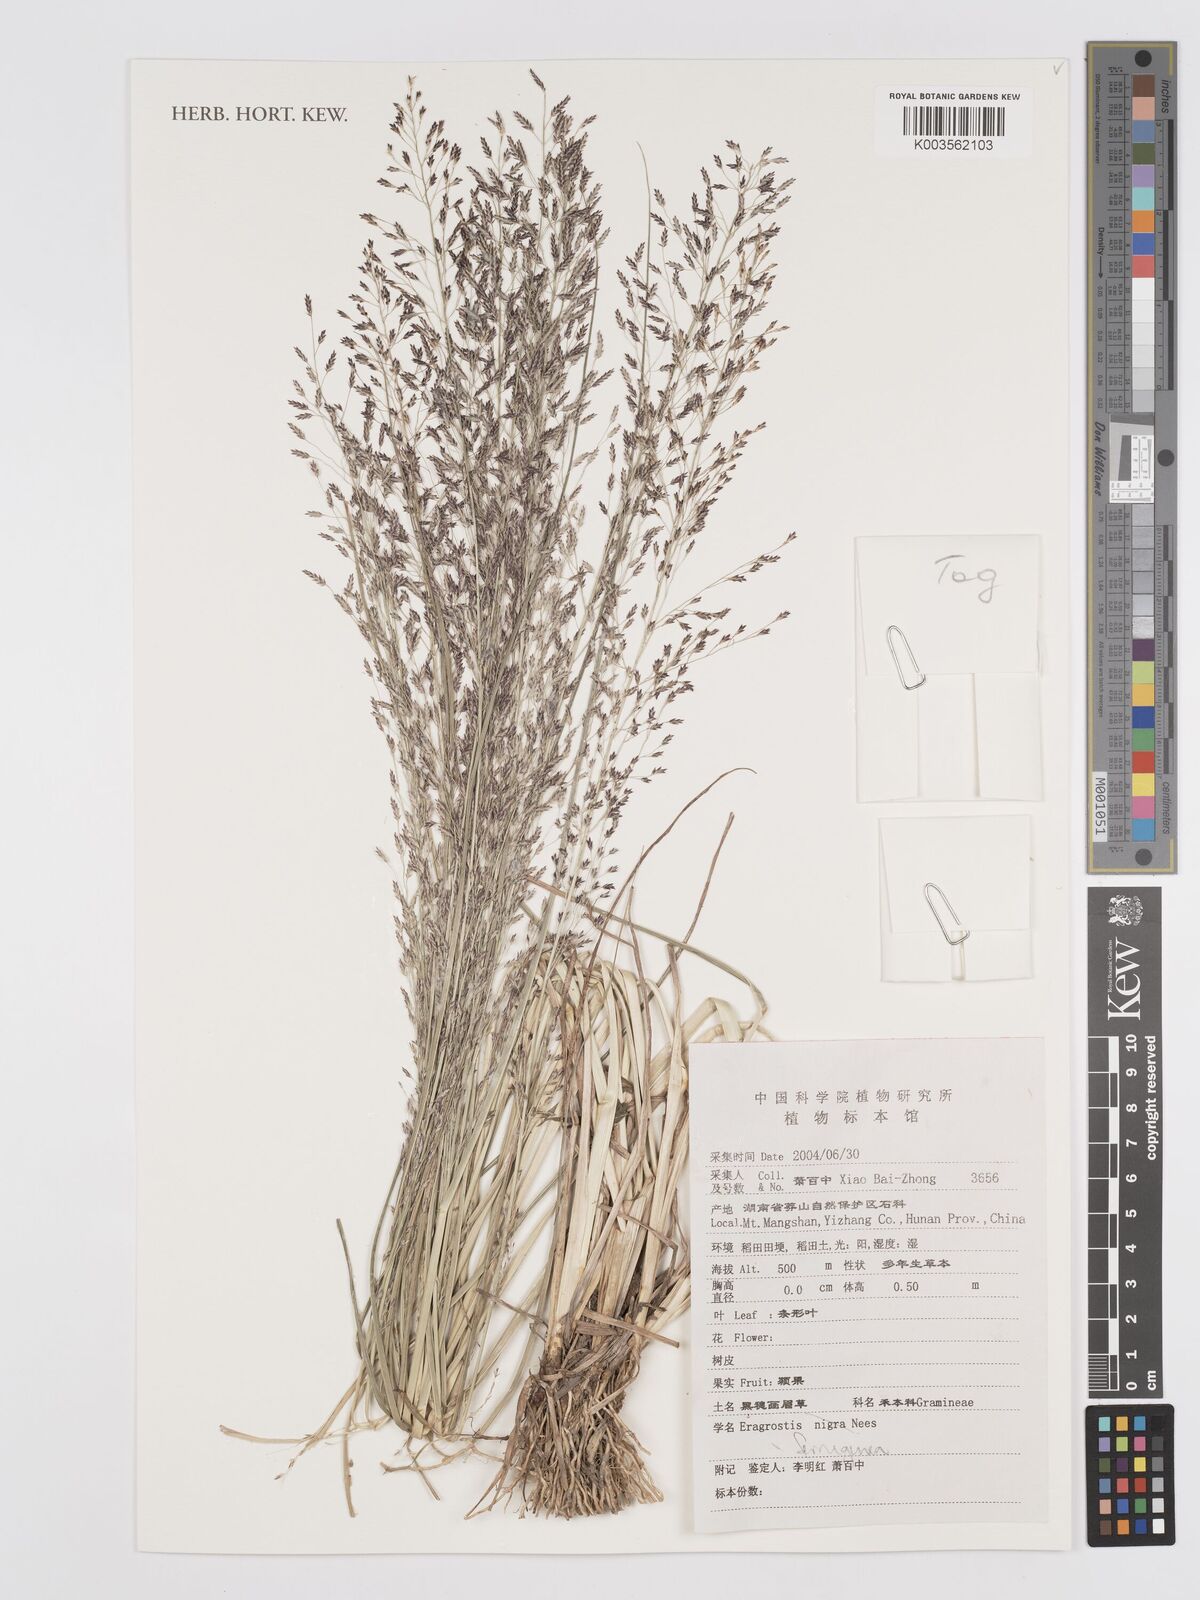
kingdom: Plantae
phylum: Tracheophyta
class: Liliopsida
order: Poales
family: Poaceae
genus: Eragrostis
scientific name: Eragrostis ferruginea
